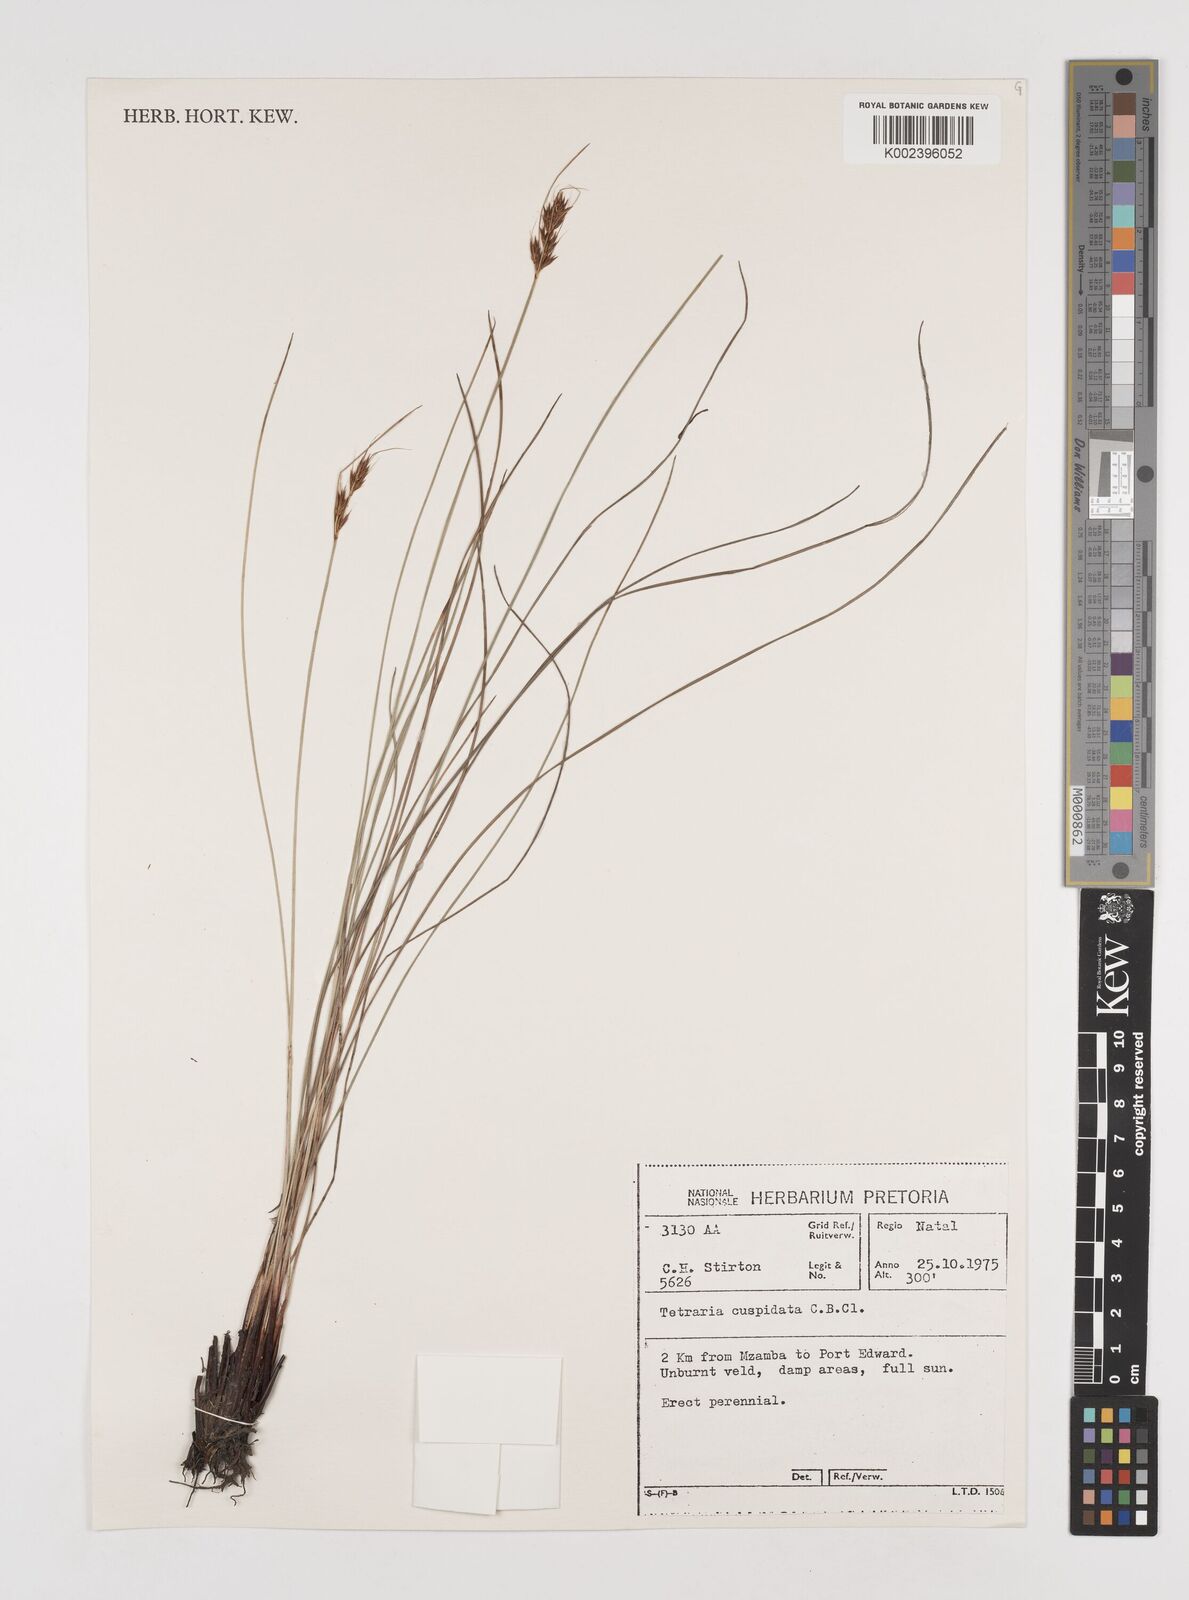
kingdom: Plantae
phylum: Tracheophyta
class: Liliopsida
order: Poales
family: Cyperaceae
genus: Schoenus
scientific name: Schoenus cuspidatus
